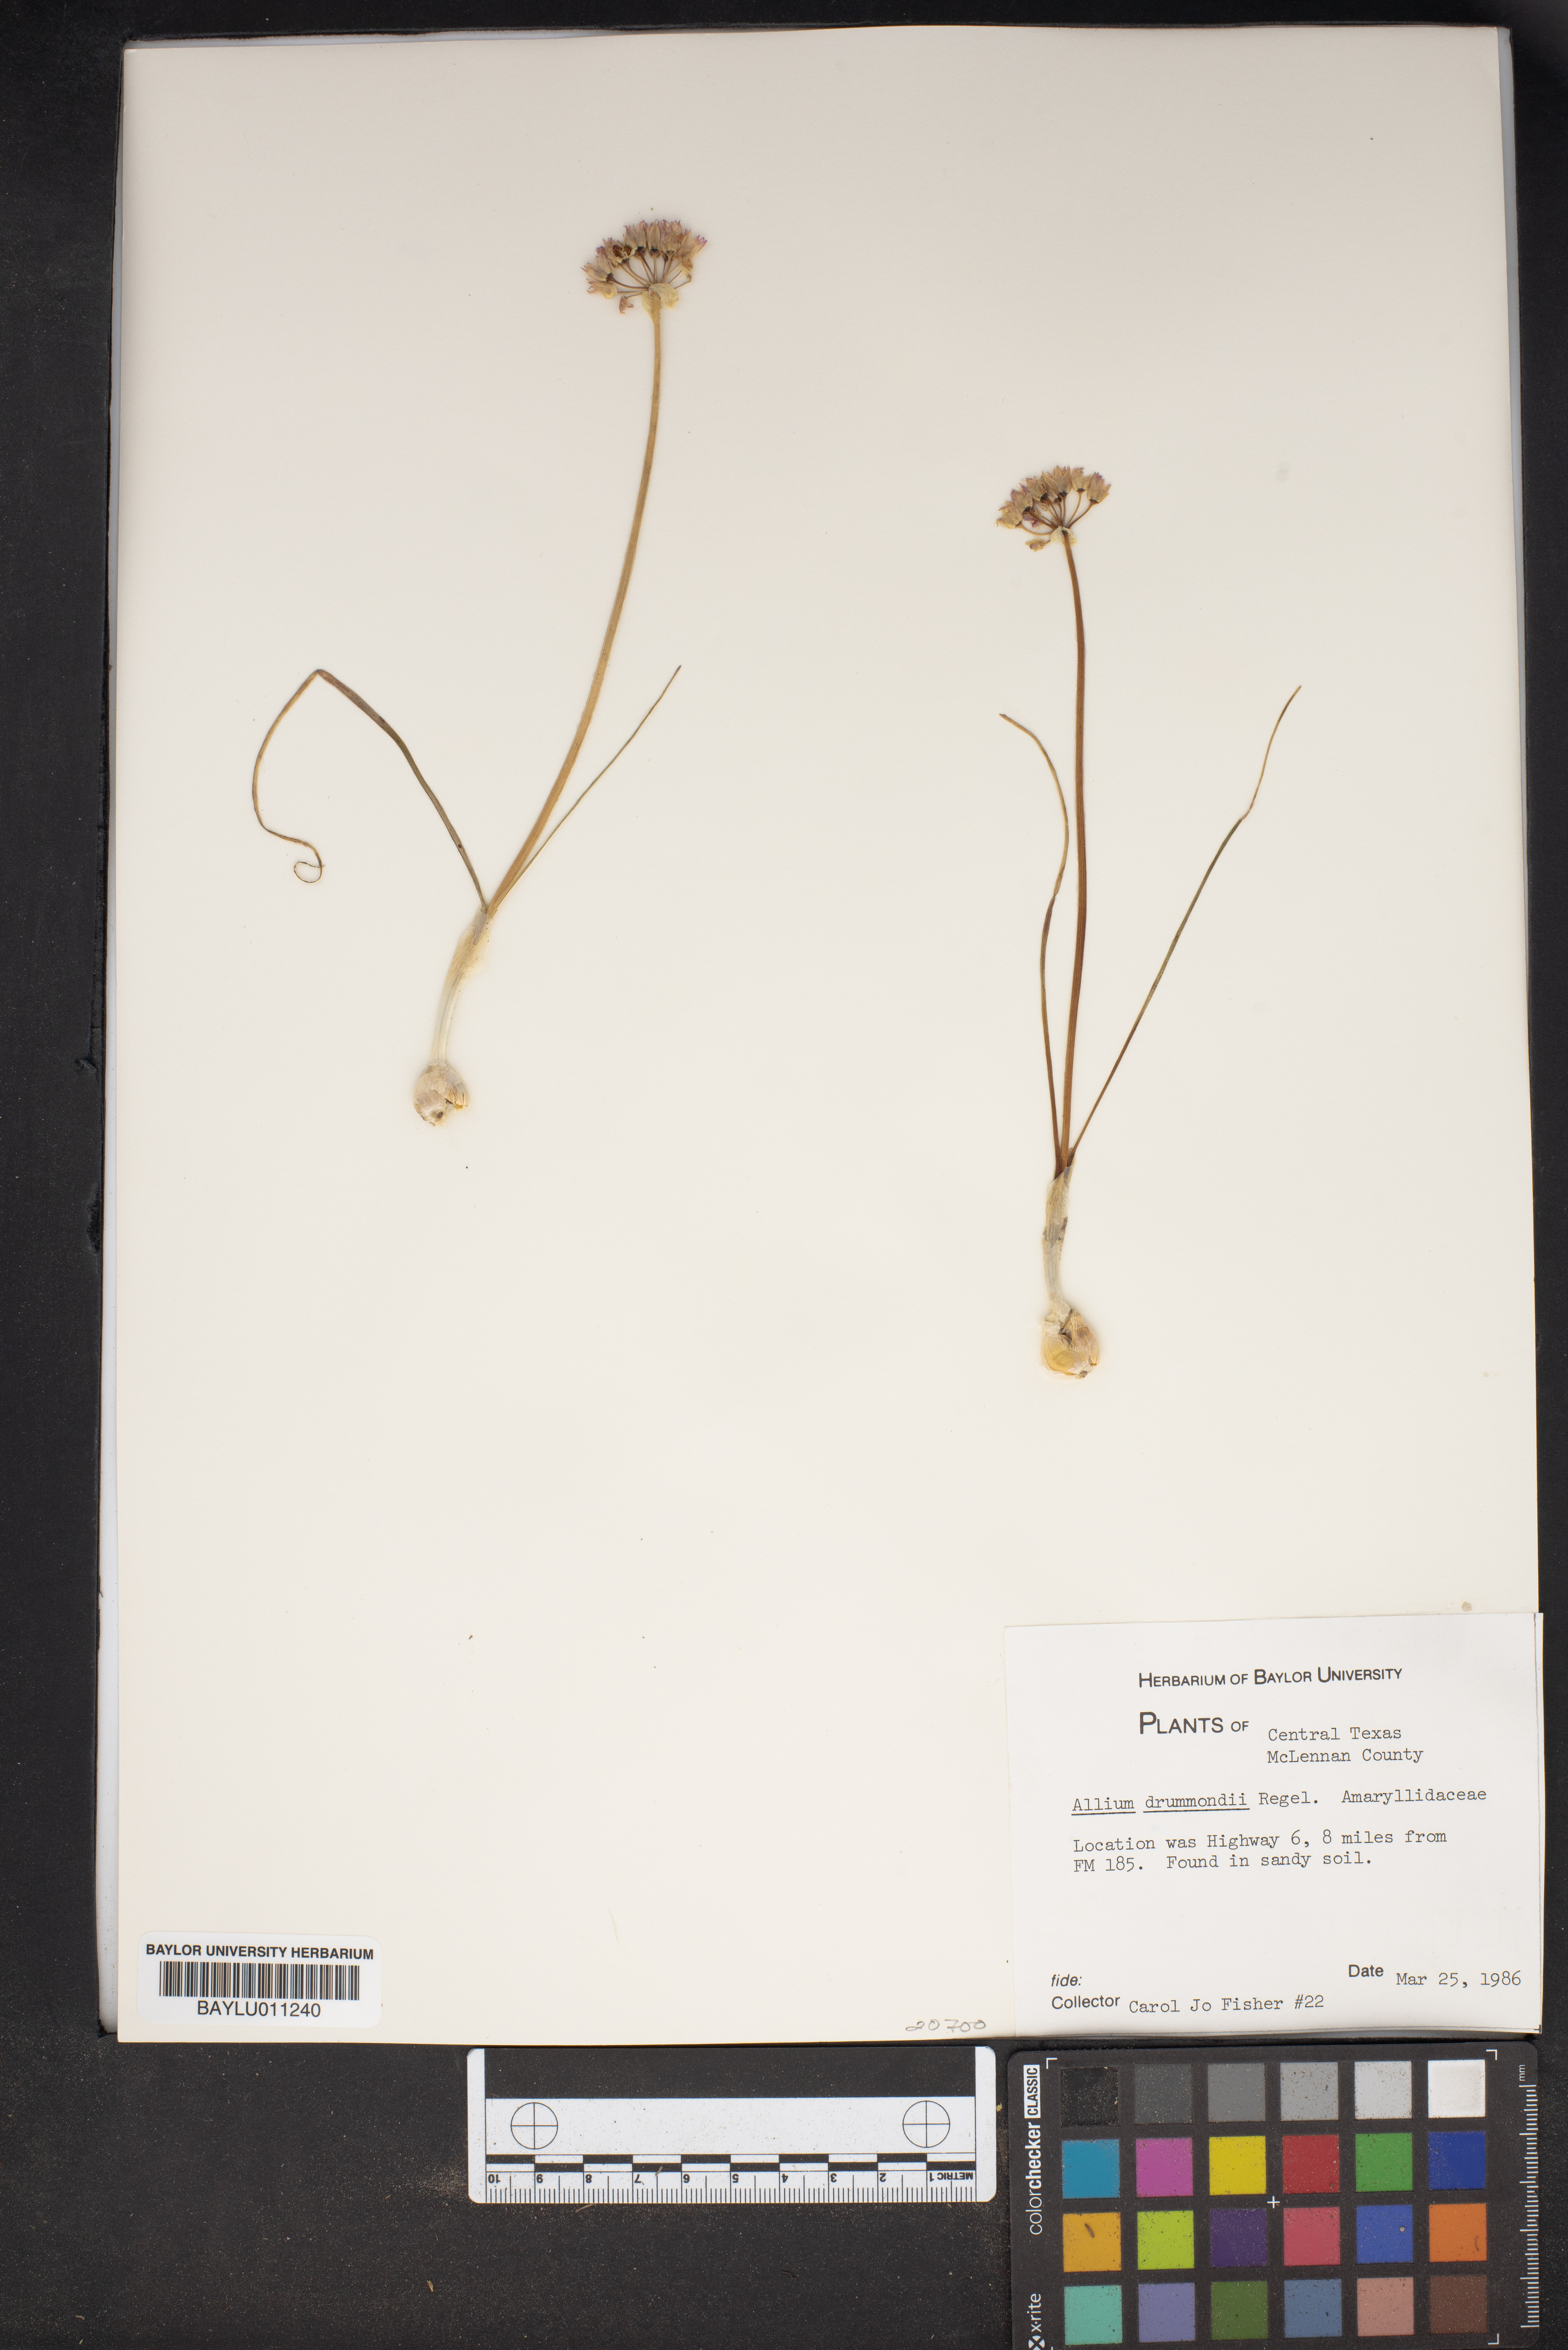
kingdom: Plantae
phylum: Tracheophyta
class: Liliopsida
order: Asparagales
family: Amaryllidaceae
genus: Allium
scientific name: Allium drummondii
